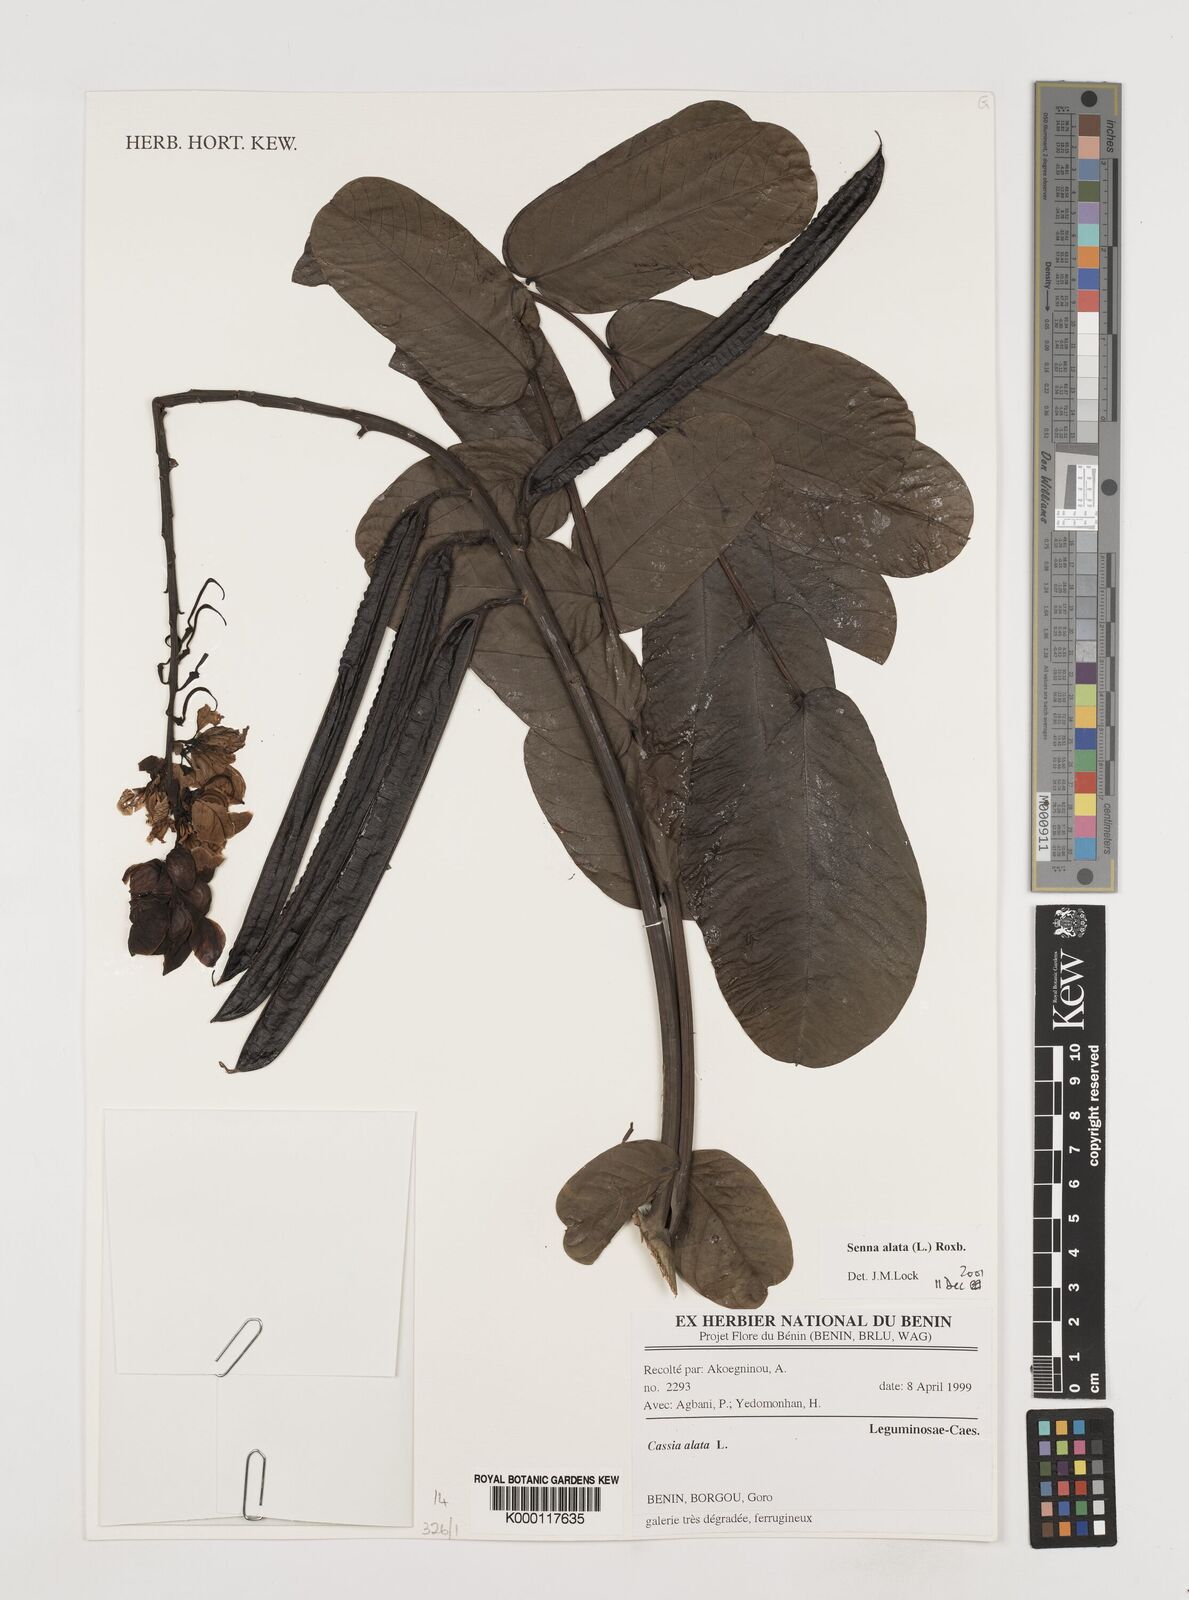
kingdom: Plantae
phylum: Tracheophyta
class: Magnoliopsida
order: Fabales
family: Fabaceae
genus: Senna
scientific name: Senna alata
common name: Emperor's candlesticks
